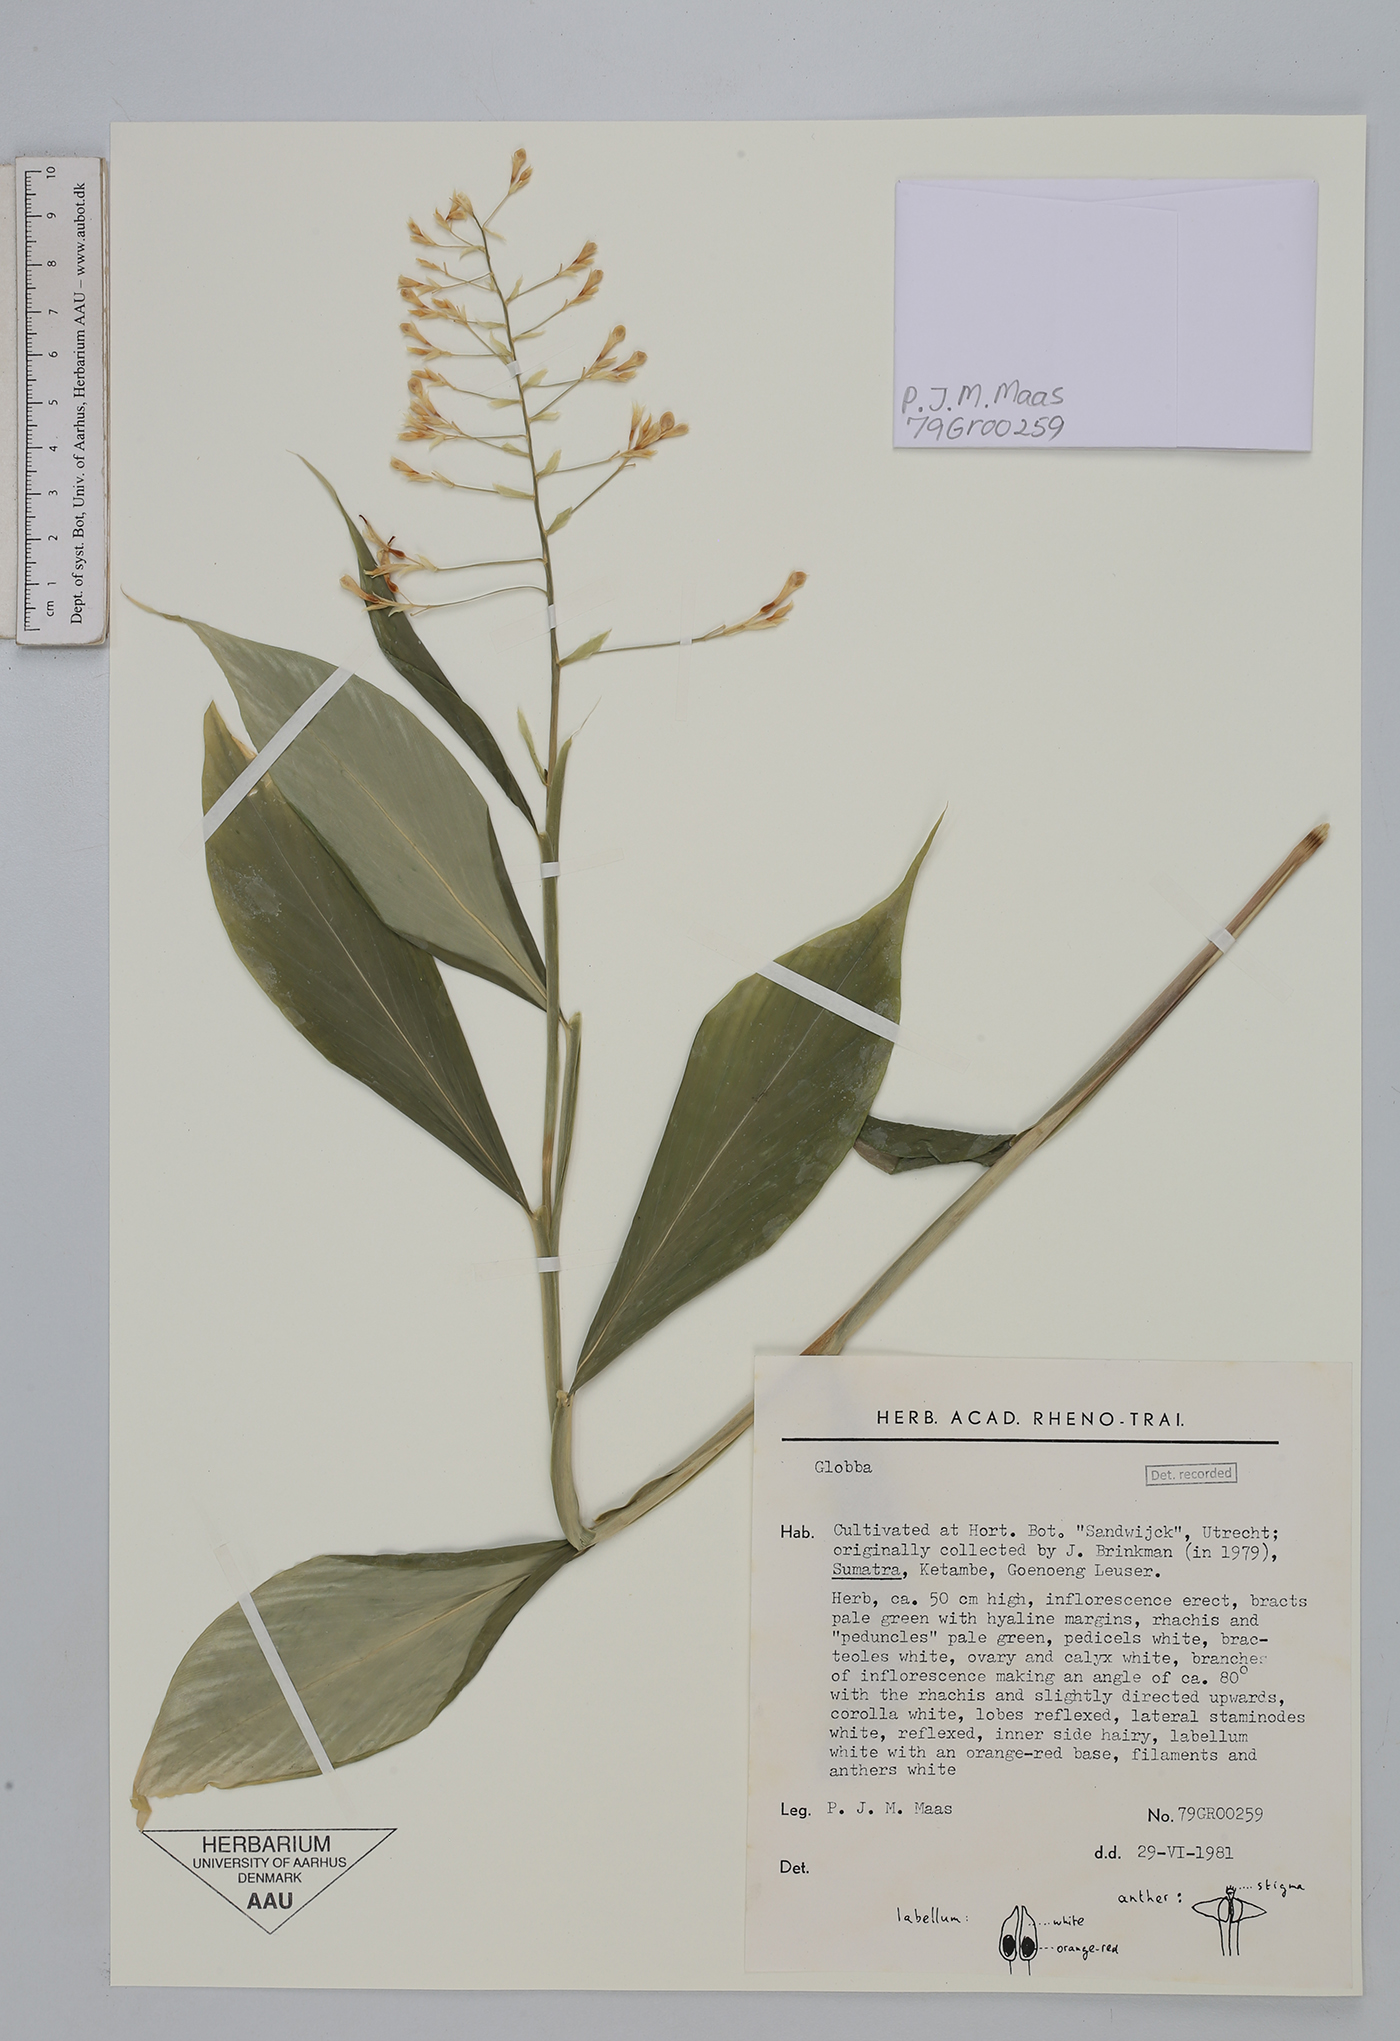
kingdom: Plantae
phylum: Tracheophyta
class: Liliopsida
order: Zingiberales
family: Zingiberaceae
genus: Globba
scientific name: Globba pyrrhopoikila
